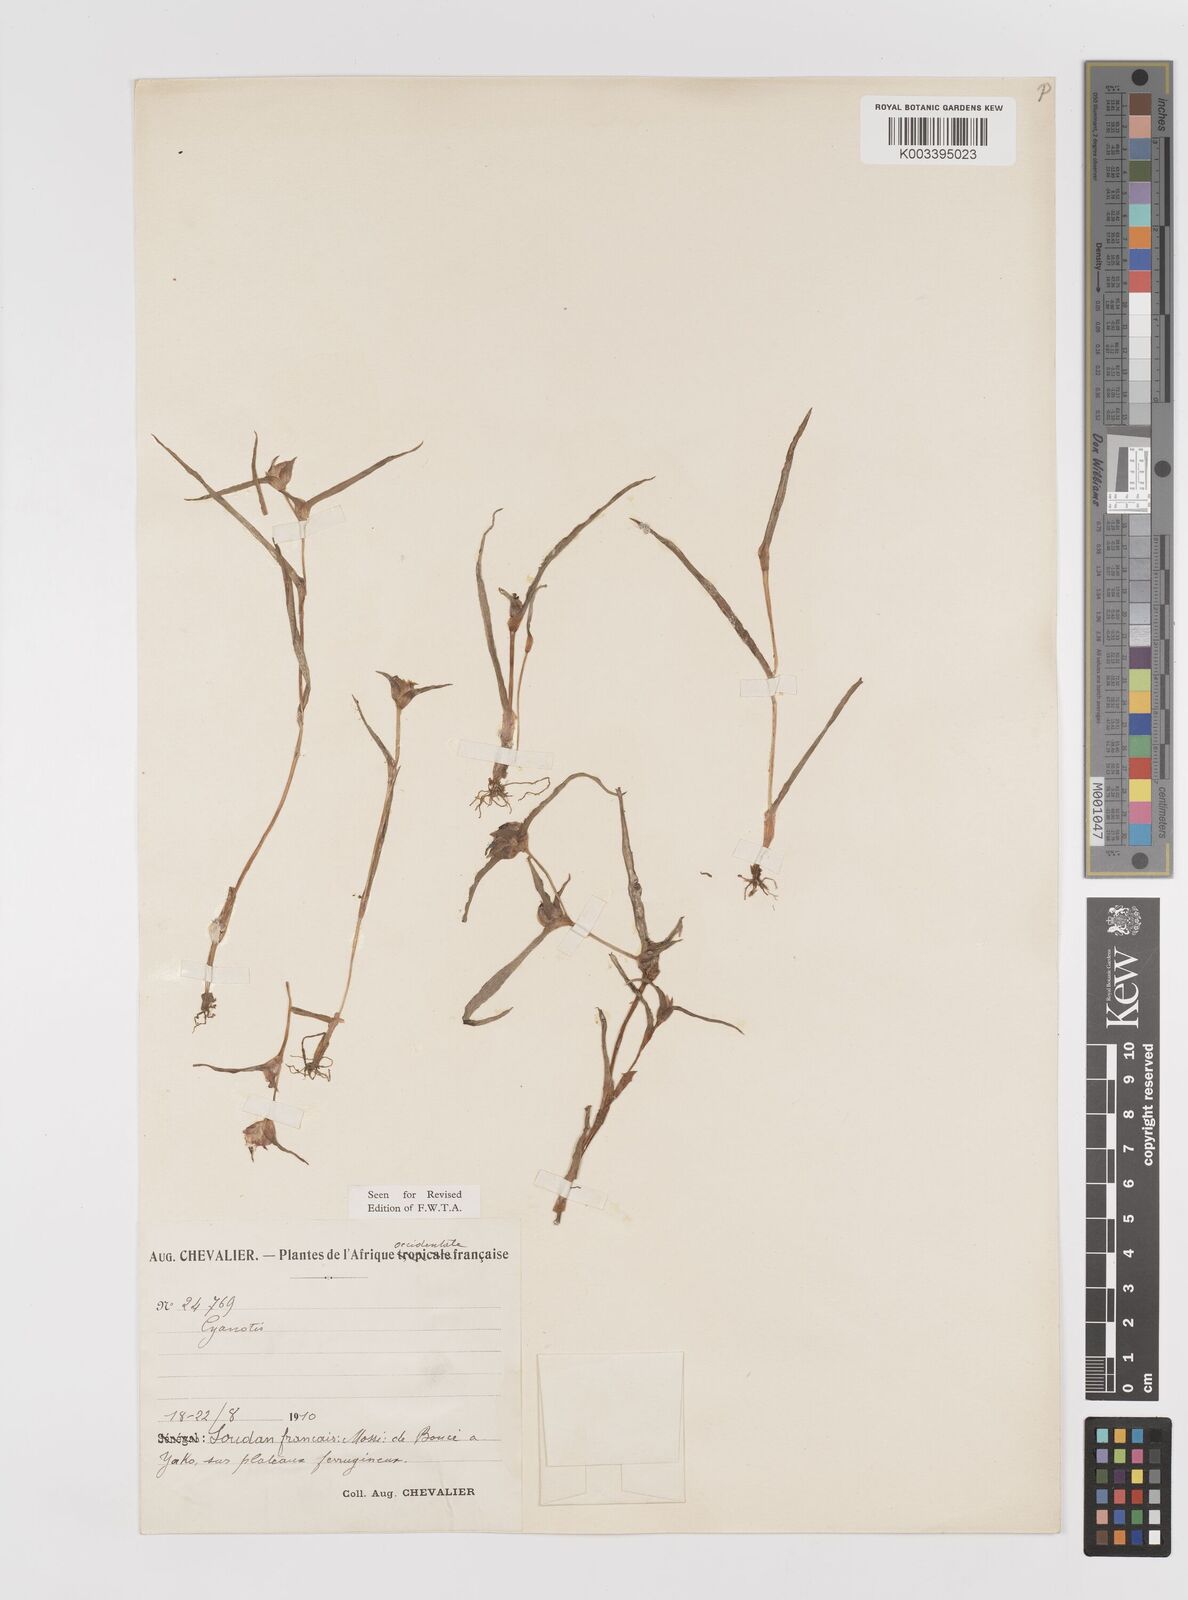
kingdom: Plantae
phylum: Tracheophyta
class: Liliopsida
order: Commelinales
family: Commelinaceae
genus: Cyanotis
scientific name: Cyanotis lanata
